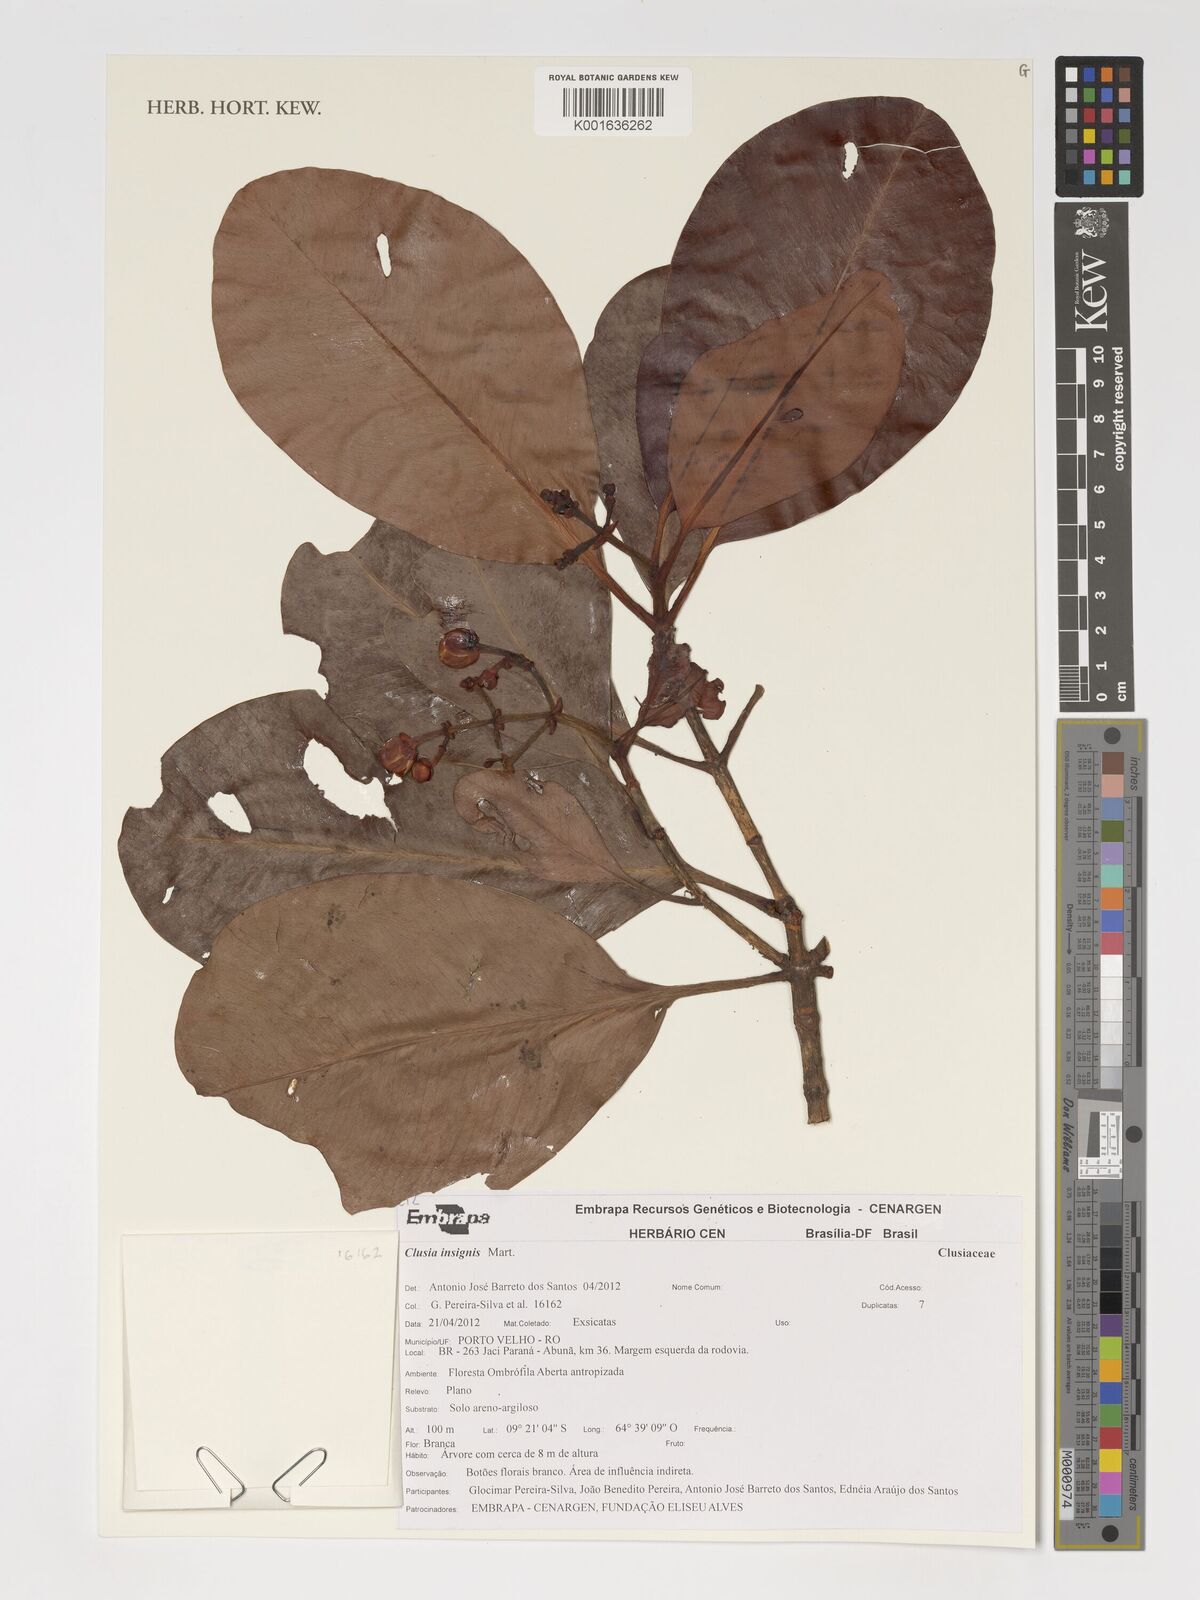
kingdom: Plantae
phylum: Tracheophyta
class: Magnoliopsida
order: Malpighiales
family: Clusiaceae
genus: Clusia
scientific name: Clusia insignis
